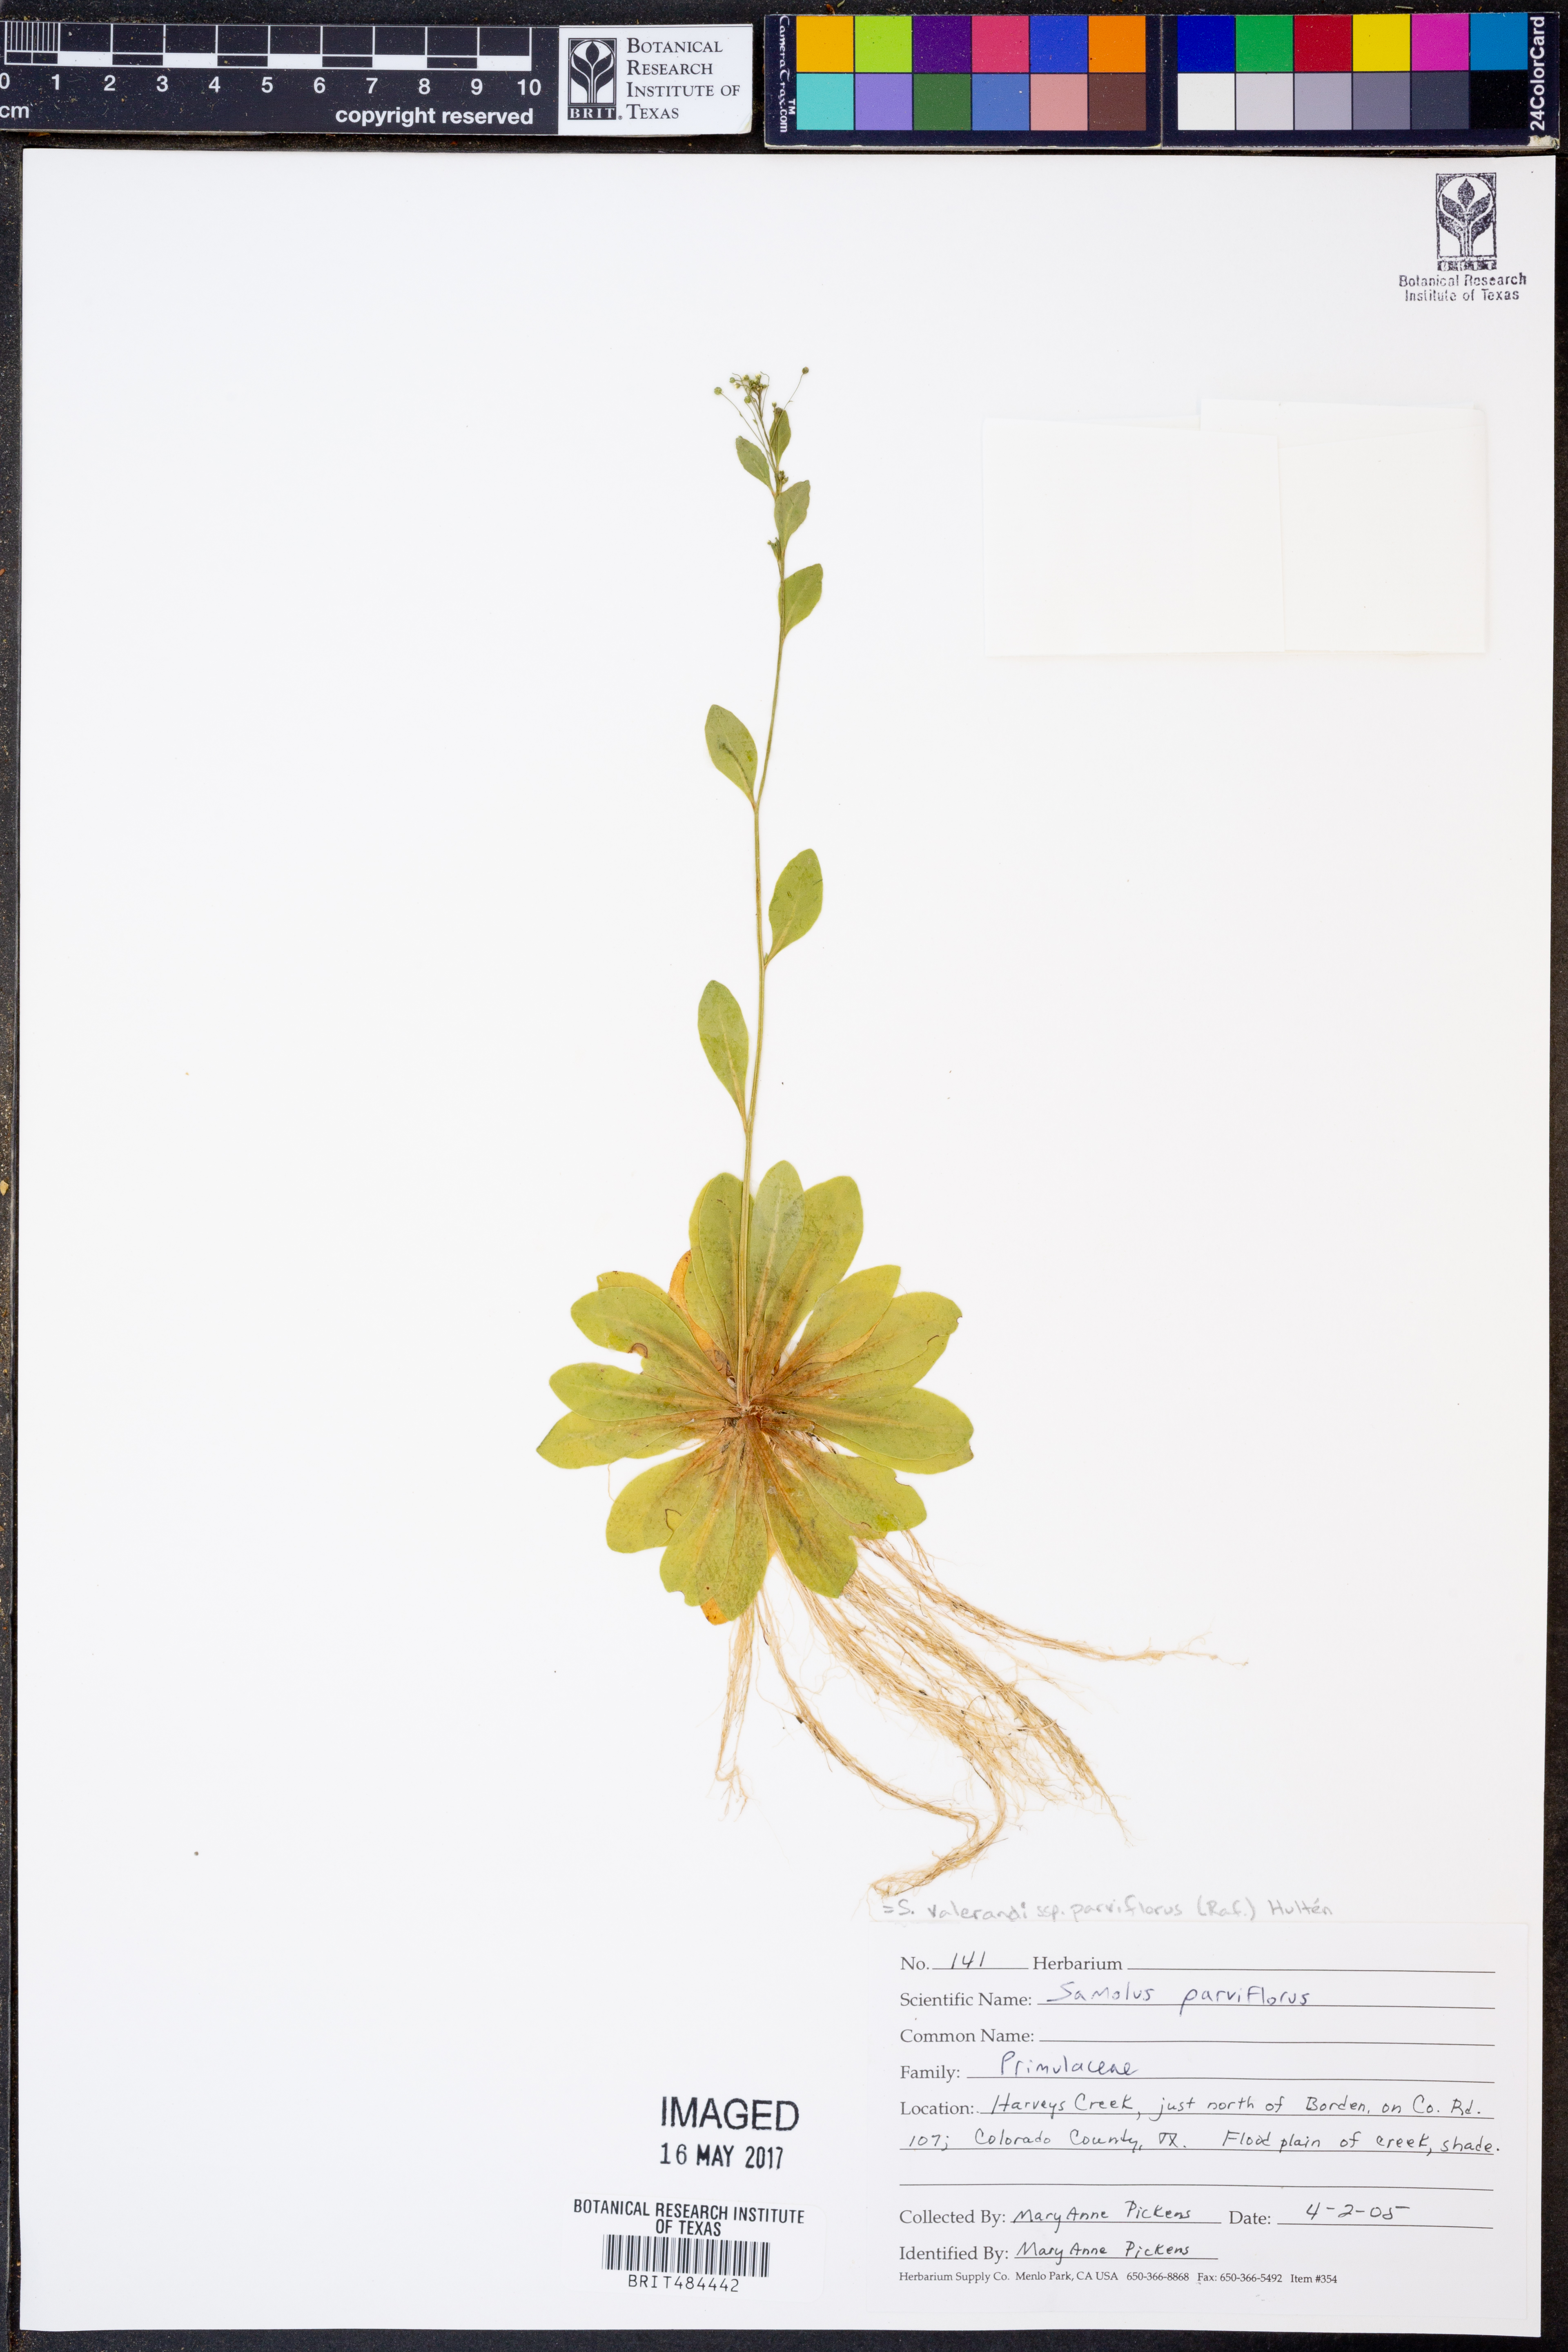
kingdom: Plantae
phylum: Tracheophyta
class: Magnoliopsida
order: Ericales
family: Primulaceae
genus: Samolus
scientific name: Samolus parviflorus
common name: False water pimpernel
